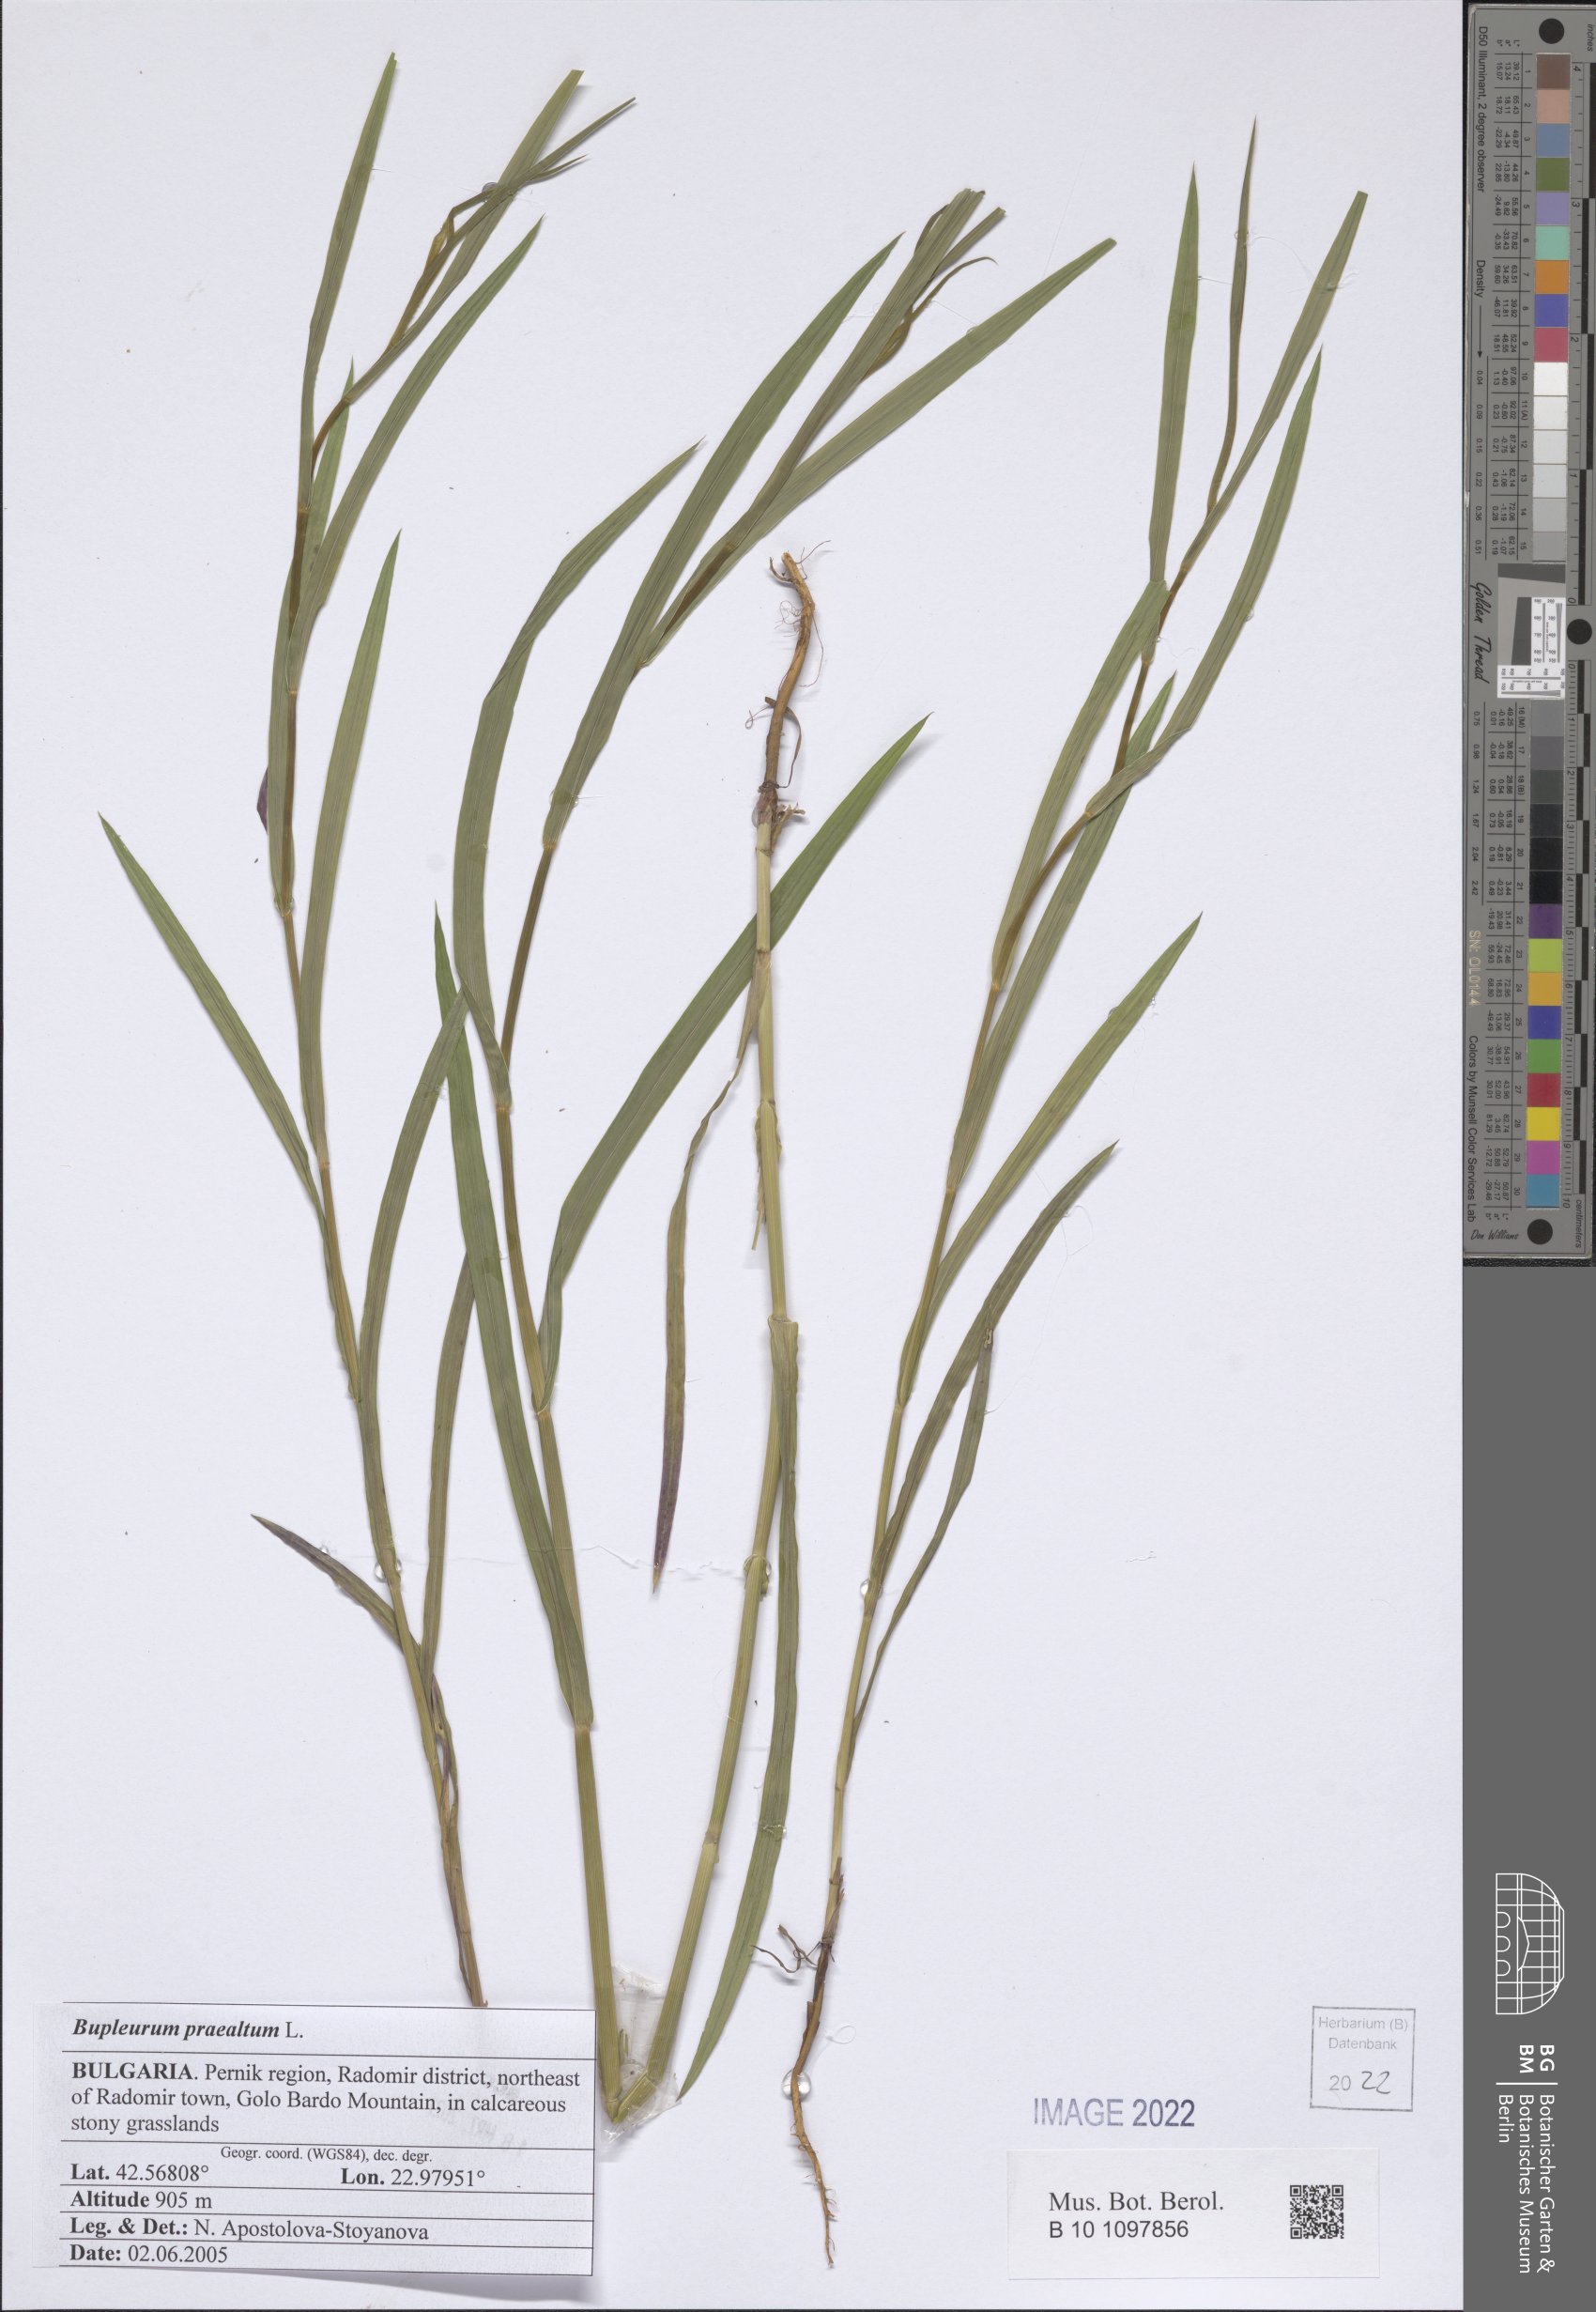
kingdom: Plantae
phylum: Tracheophyta
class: Magnoliopsida
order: Apiales
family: Apiaceae
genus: Bupleurum
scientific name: Bupleurum praealtum
